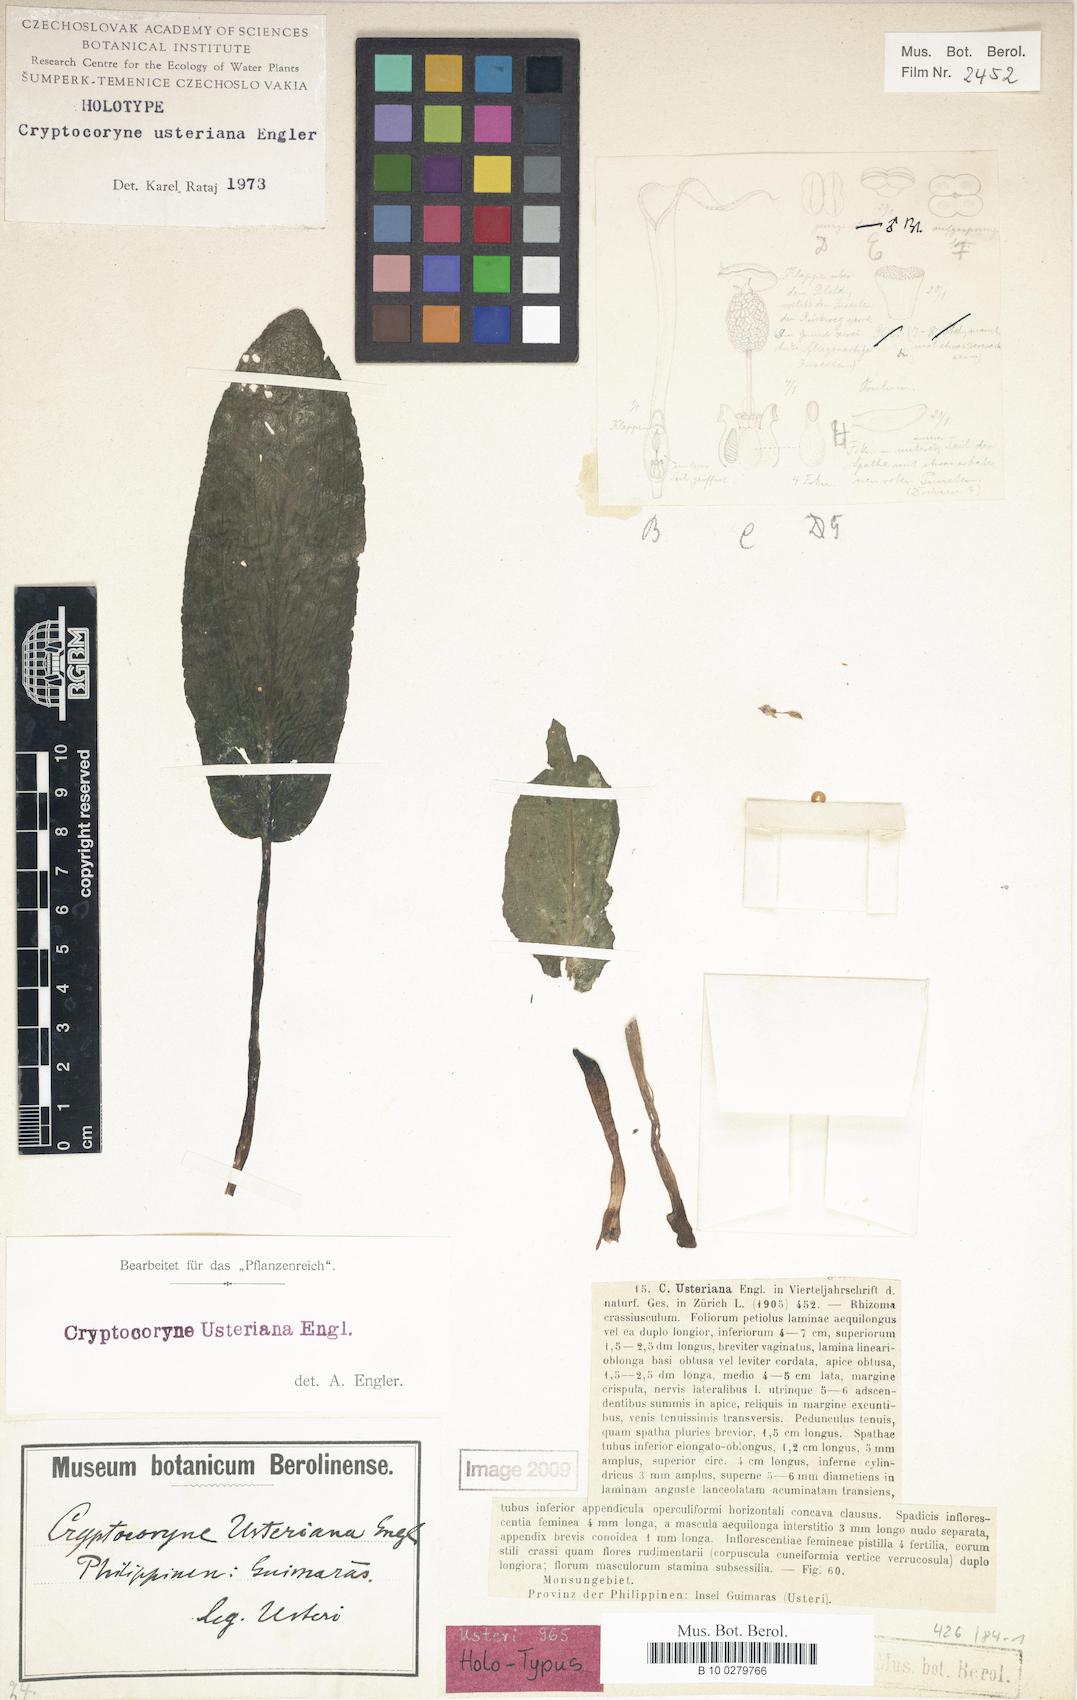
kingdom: Plantae
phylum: Tracheophyta
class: Liliopsida
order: Alismatales
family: Araceae
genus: Cryptocoryne
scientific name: Cryptocoryne usteriana
